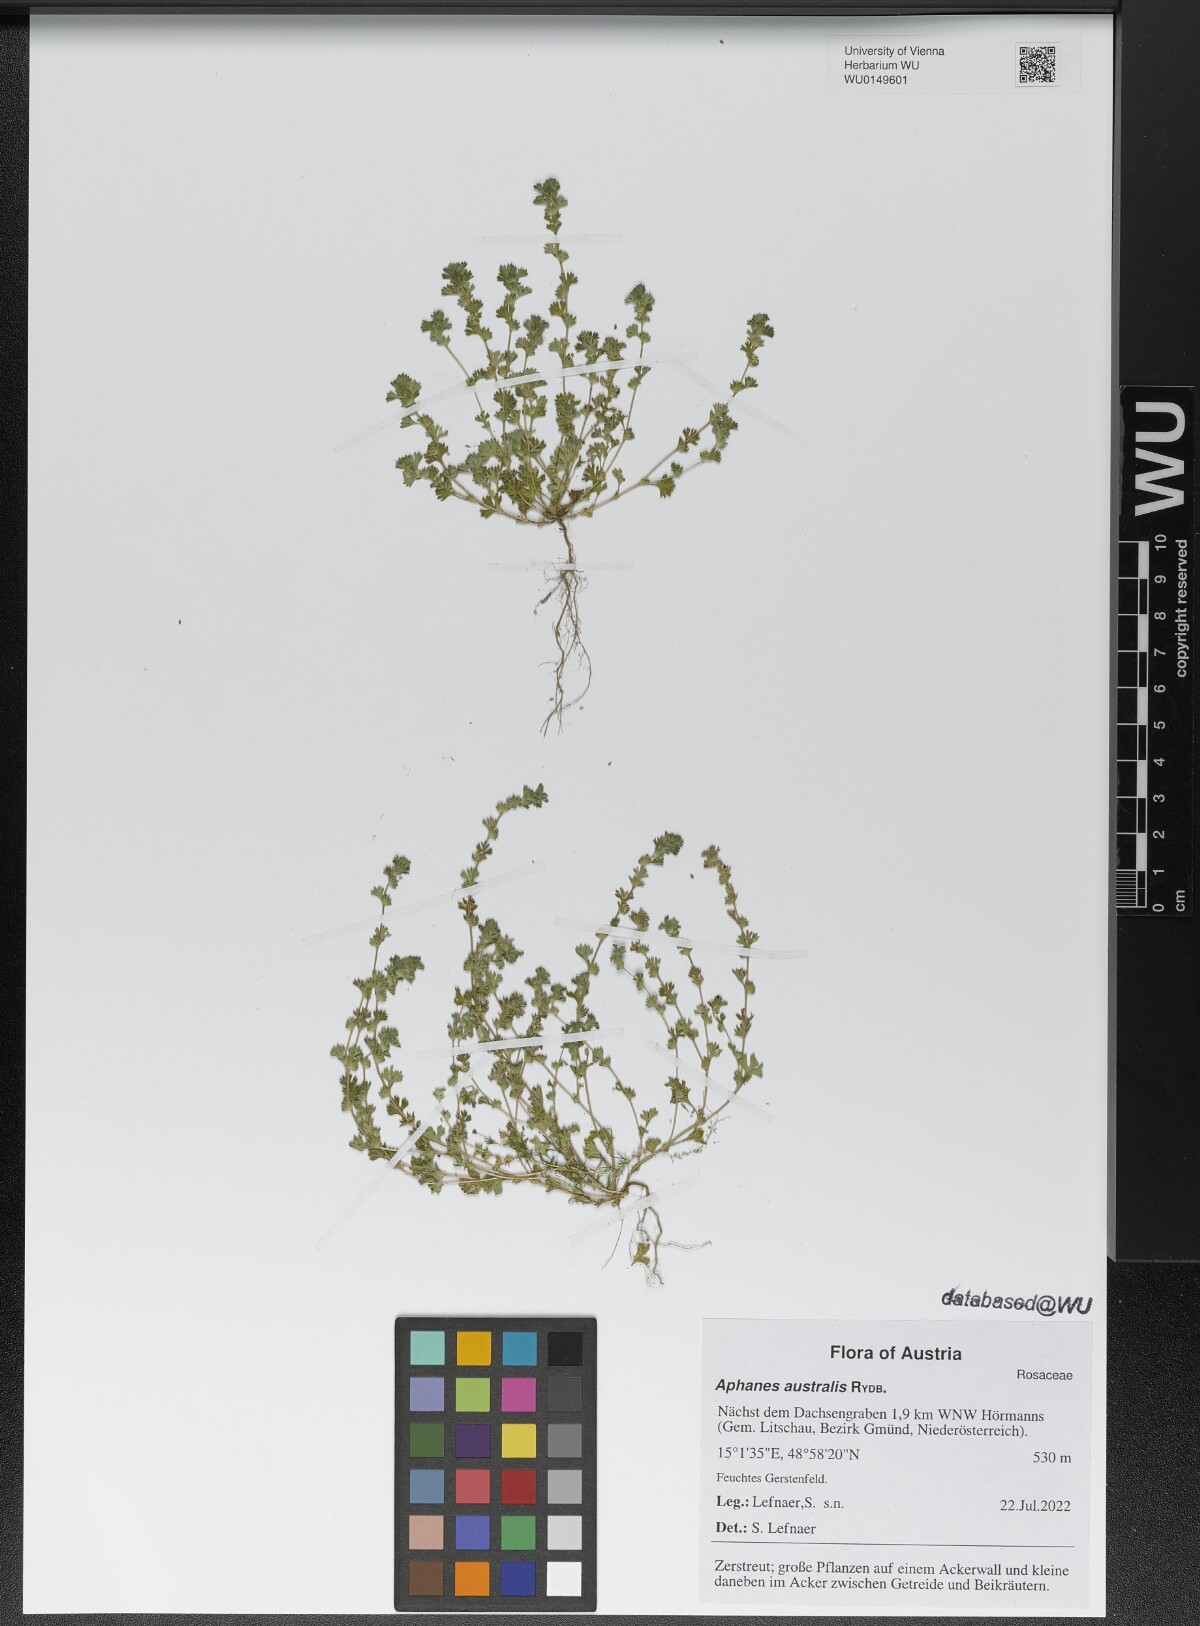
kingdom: Plantae
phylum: Tracheophyta
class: Magnoliopsida
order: Rosales
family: Rosaceae
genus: Aphanes
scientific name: Aphanes australis
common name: Slender parsley-piert
